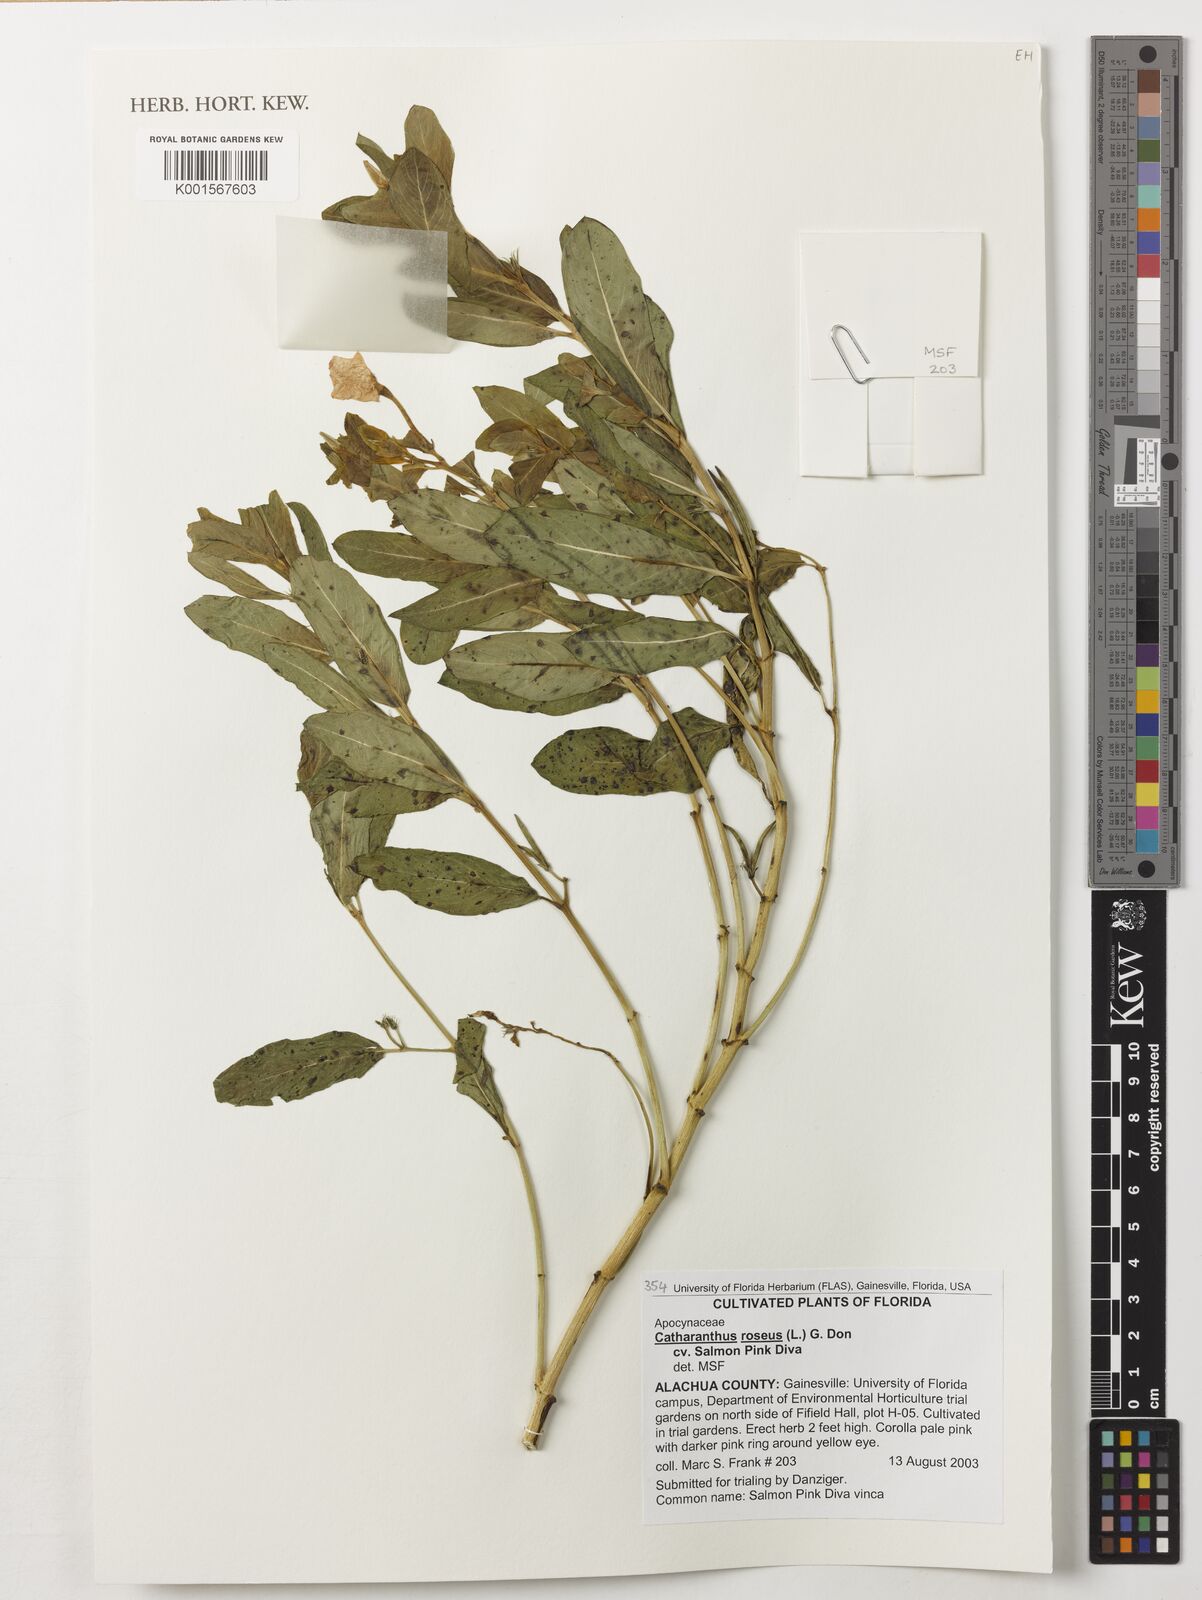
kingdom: Plantae
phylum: Tracheophyta
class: Magnoliopsida
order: Gentianales
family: Apocynaceae
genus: Catharanthus
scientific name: Catharanthus roseus
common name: Madagascar periwinkle
